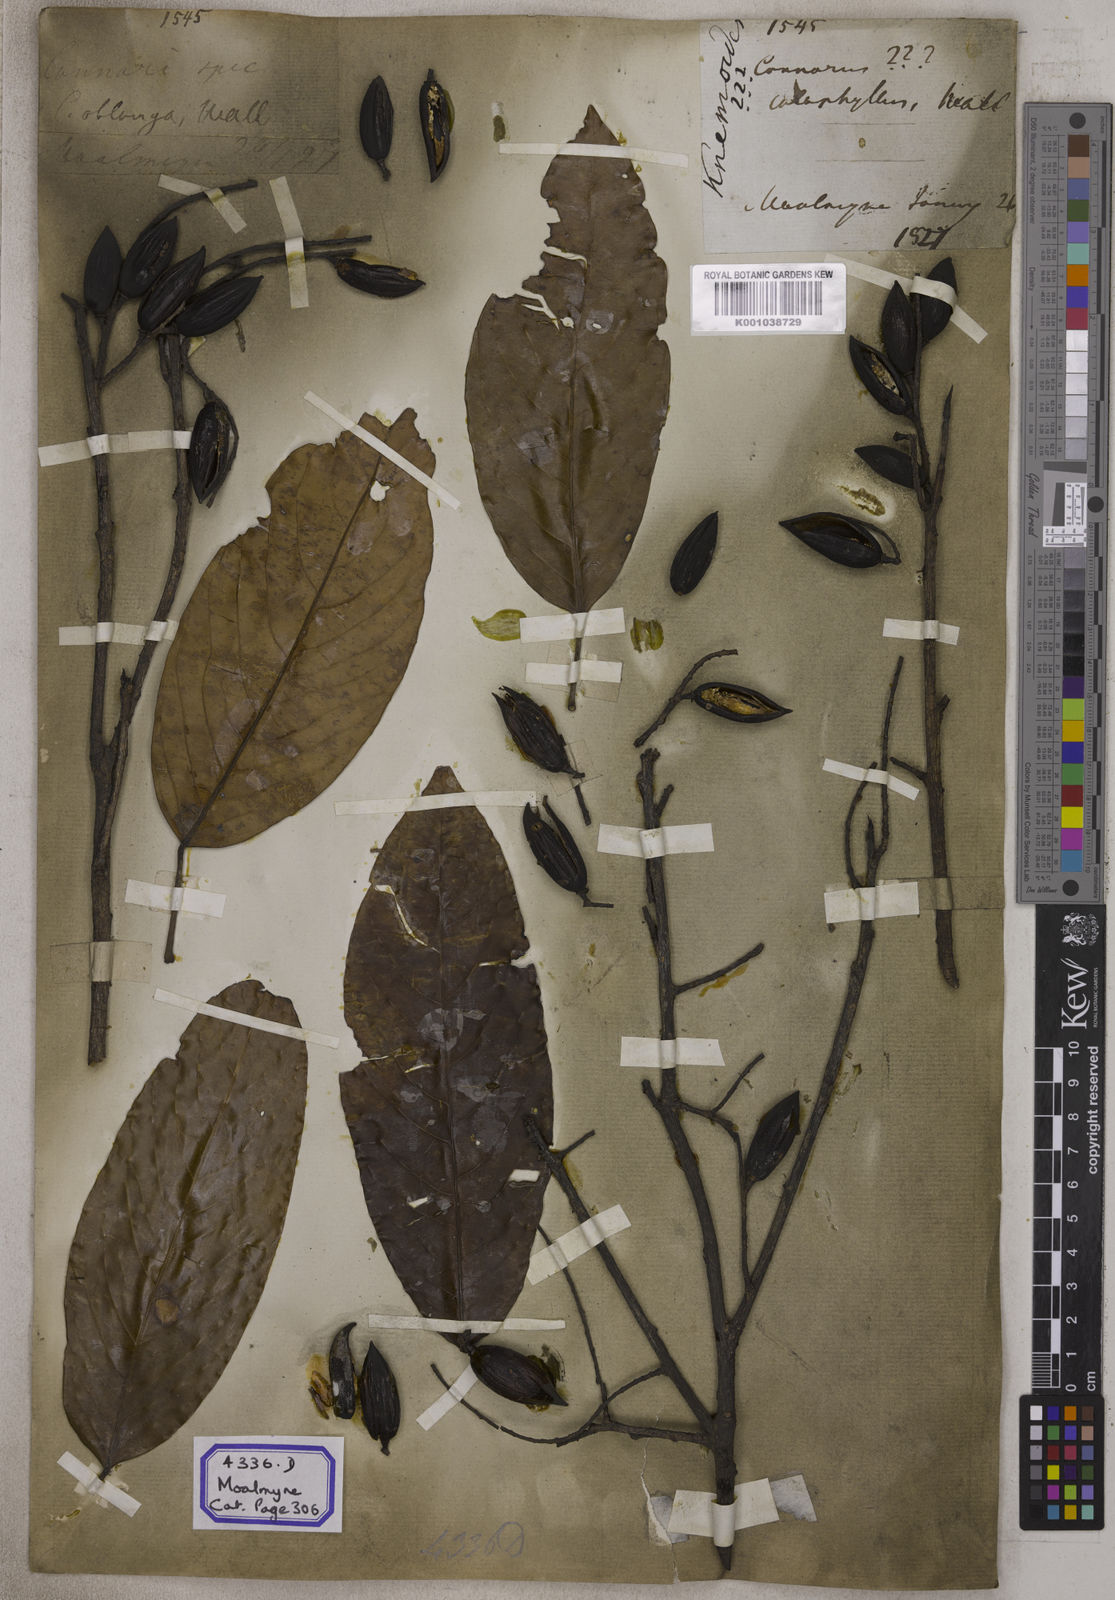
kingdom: Plantae
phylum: Tracheophyta
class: Magnoliopsida
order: Escalloniales
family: Escalloniaceae
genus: Kurrimia
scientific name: Kurrimia
